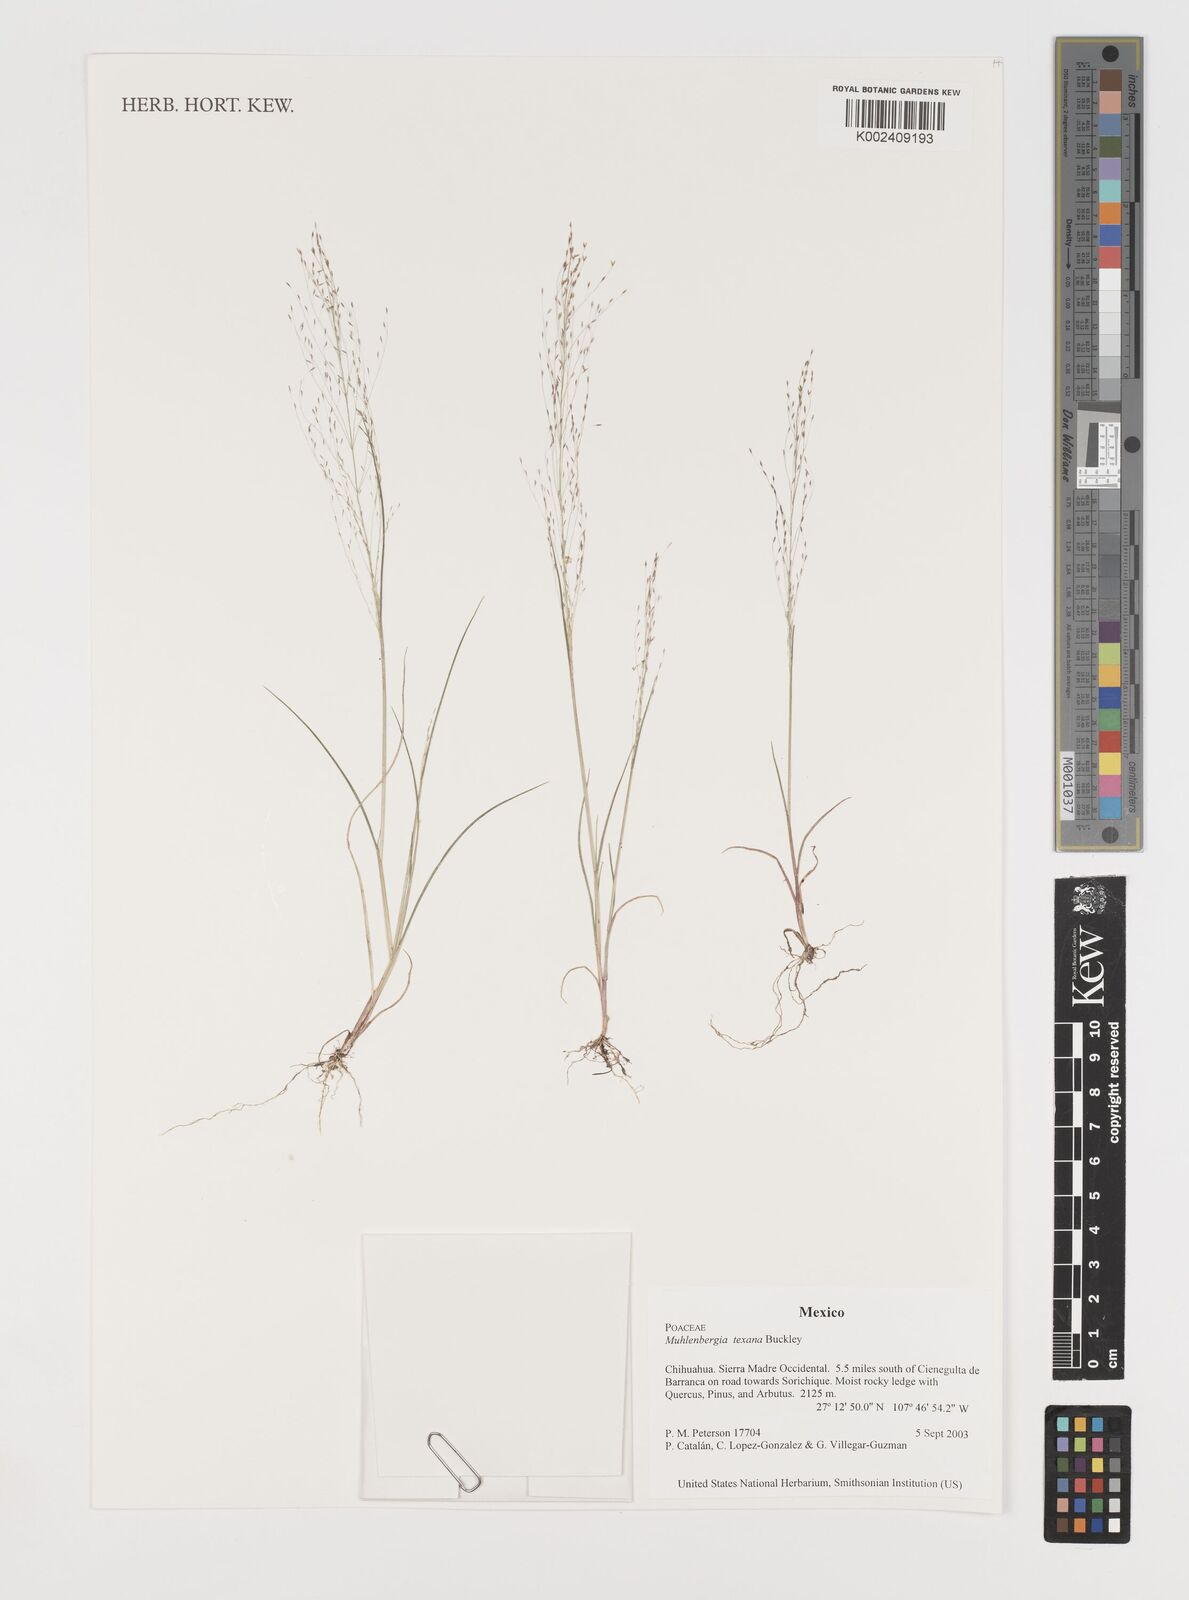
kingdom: Plantae
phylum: Tracheophyta
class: Liliopsida
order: Poales
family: Poaceae
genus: Muhlenbergia
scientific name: Muhlenbergia texana
